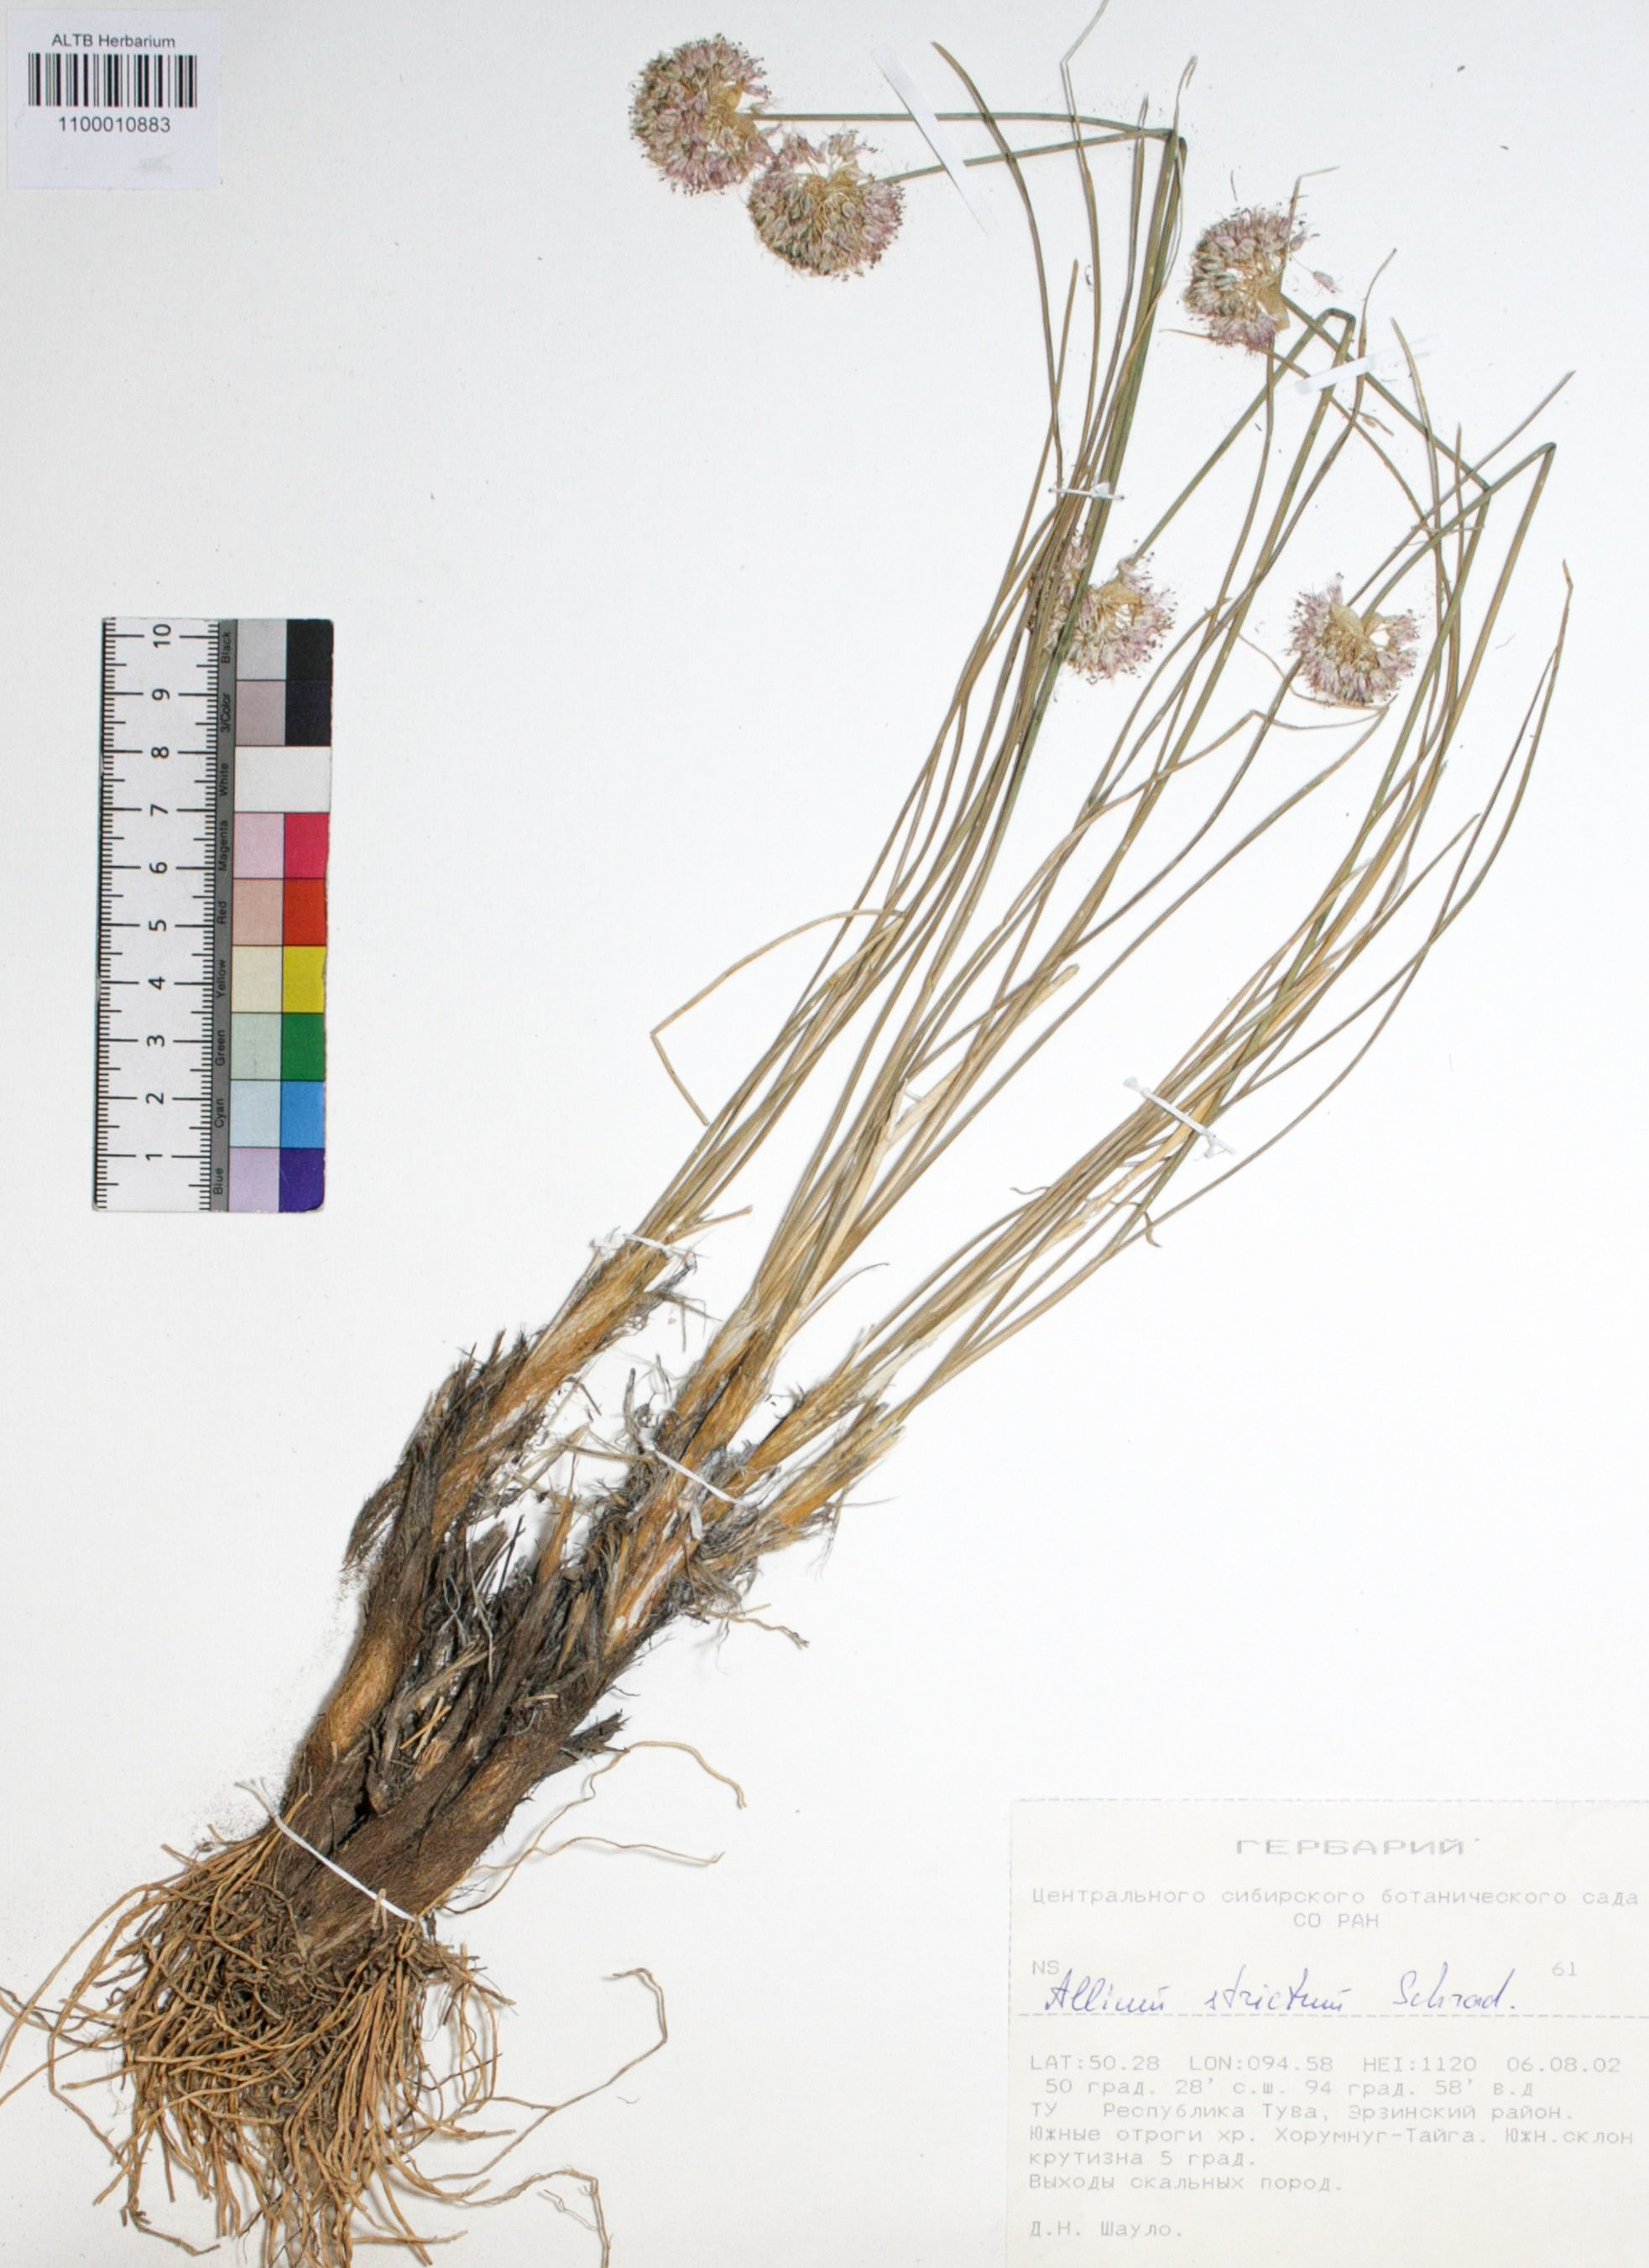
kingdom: Plantae
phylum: Tracheophyta
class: Liliopsida
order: Asparagales
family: Amaryllidaceae
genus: Allium
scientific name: Allium strictum
